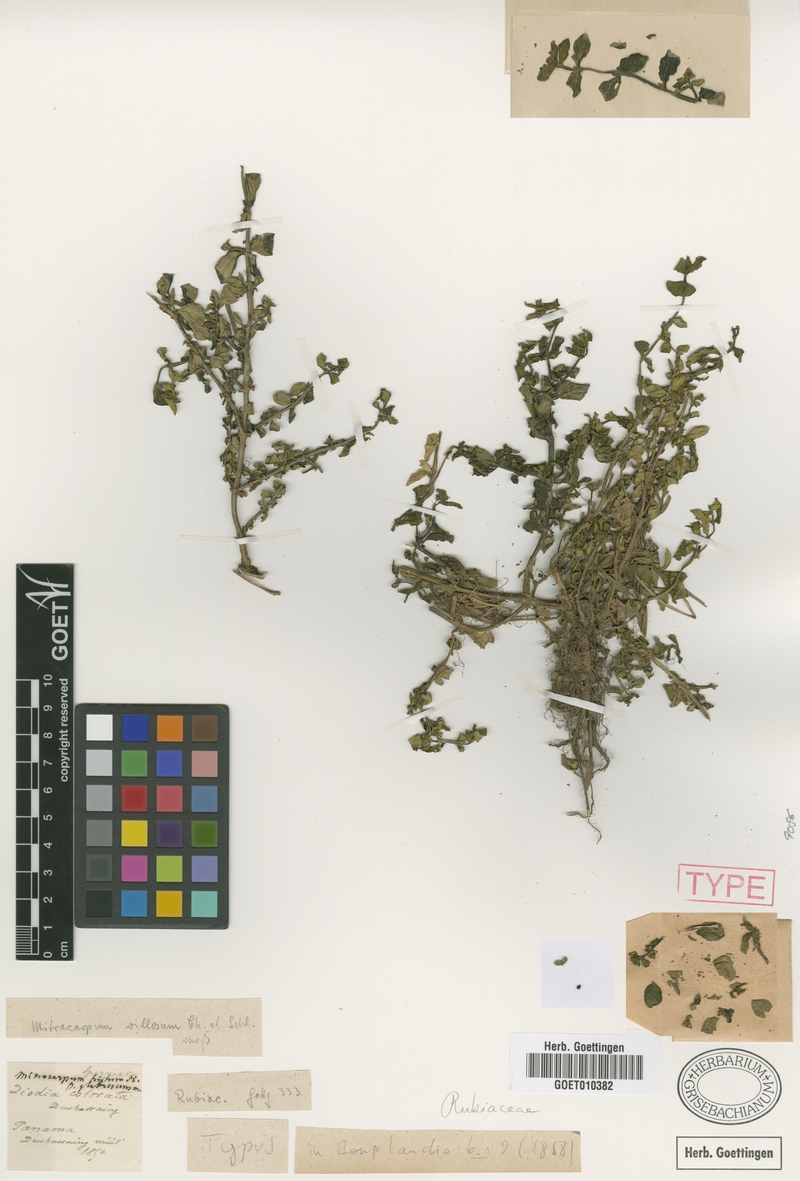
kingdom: Plantae
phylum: Tracheophyta
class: Magnoliopsida
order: Gentianales
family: Rubiaceae
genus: Mitracarpus
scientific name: Mitracarpus glabrescens
